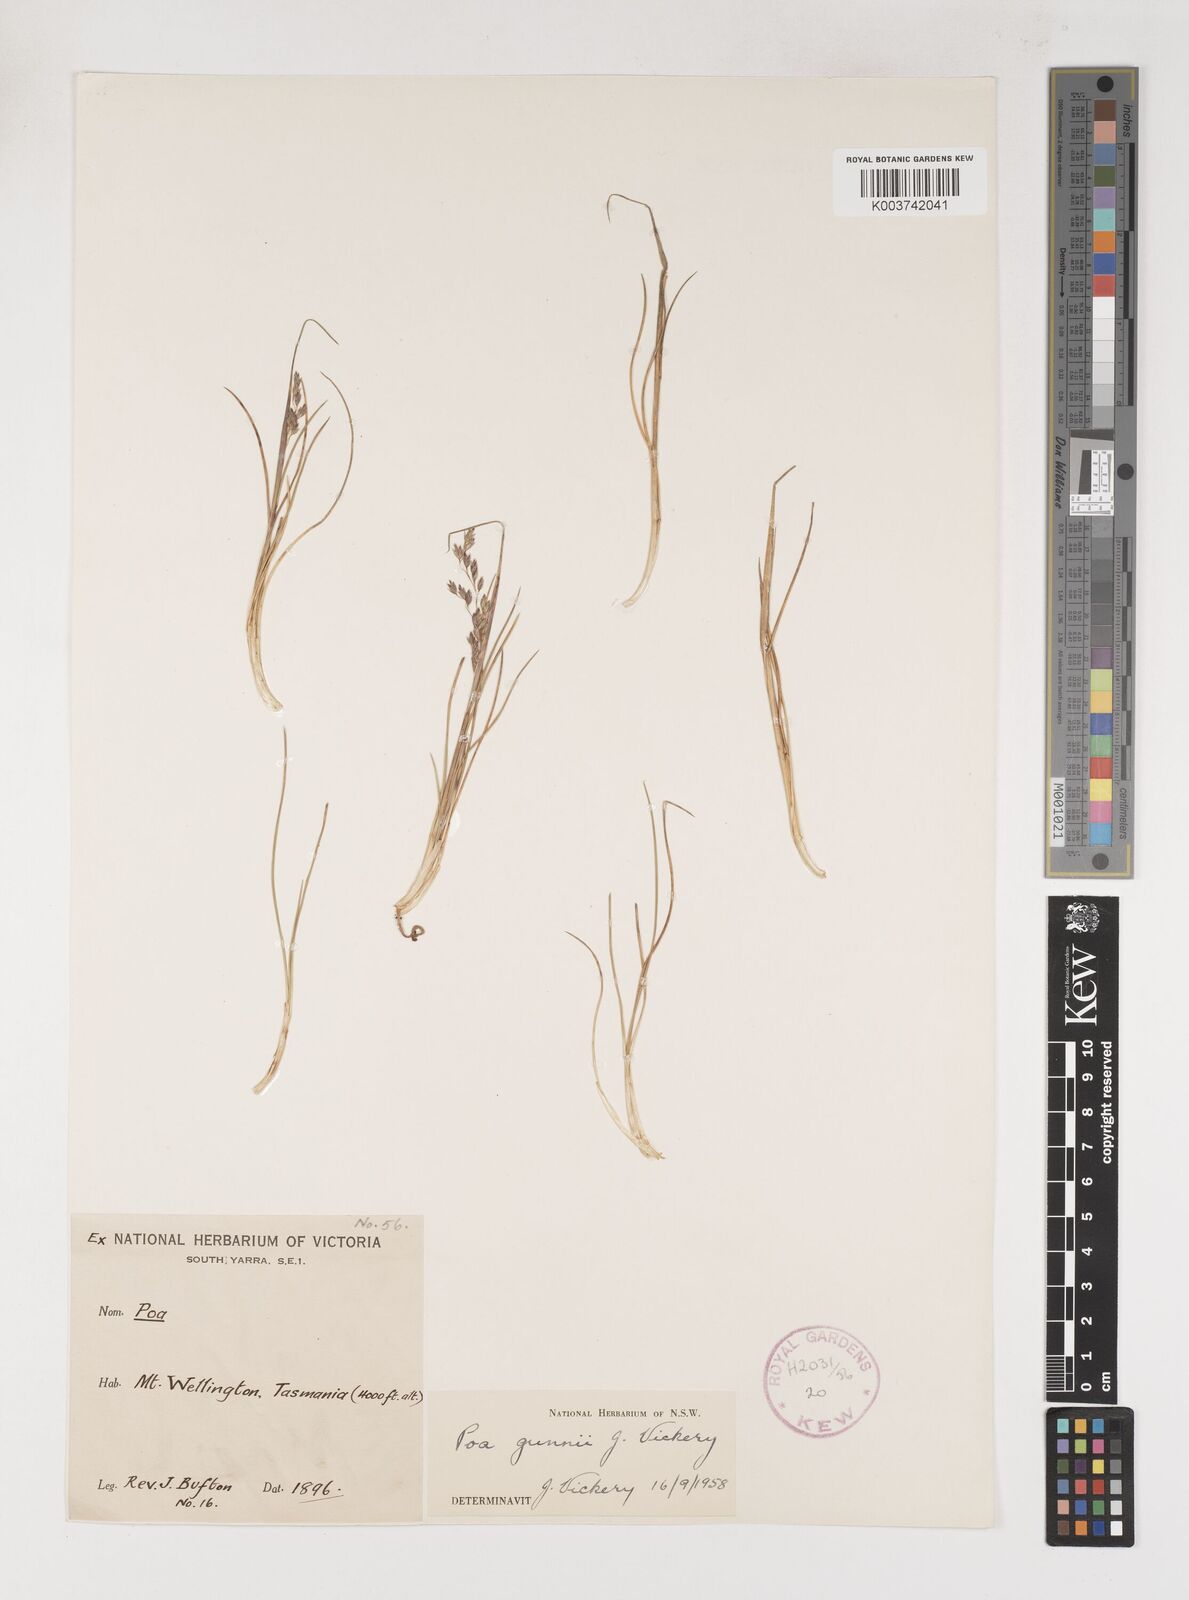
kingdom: Plantae
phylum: Tracheophyta
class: Liliopsida
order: Poales
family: Poaceae
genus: Poa
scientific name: Poa gunnii
